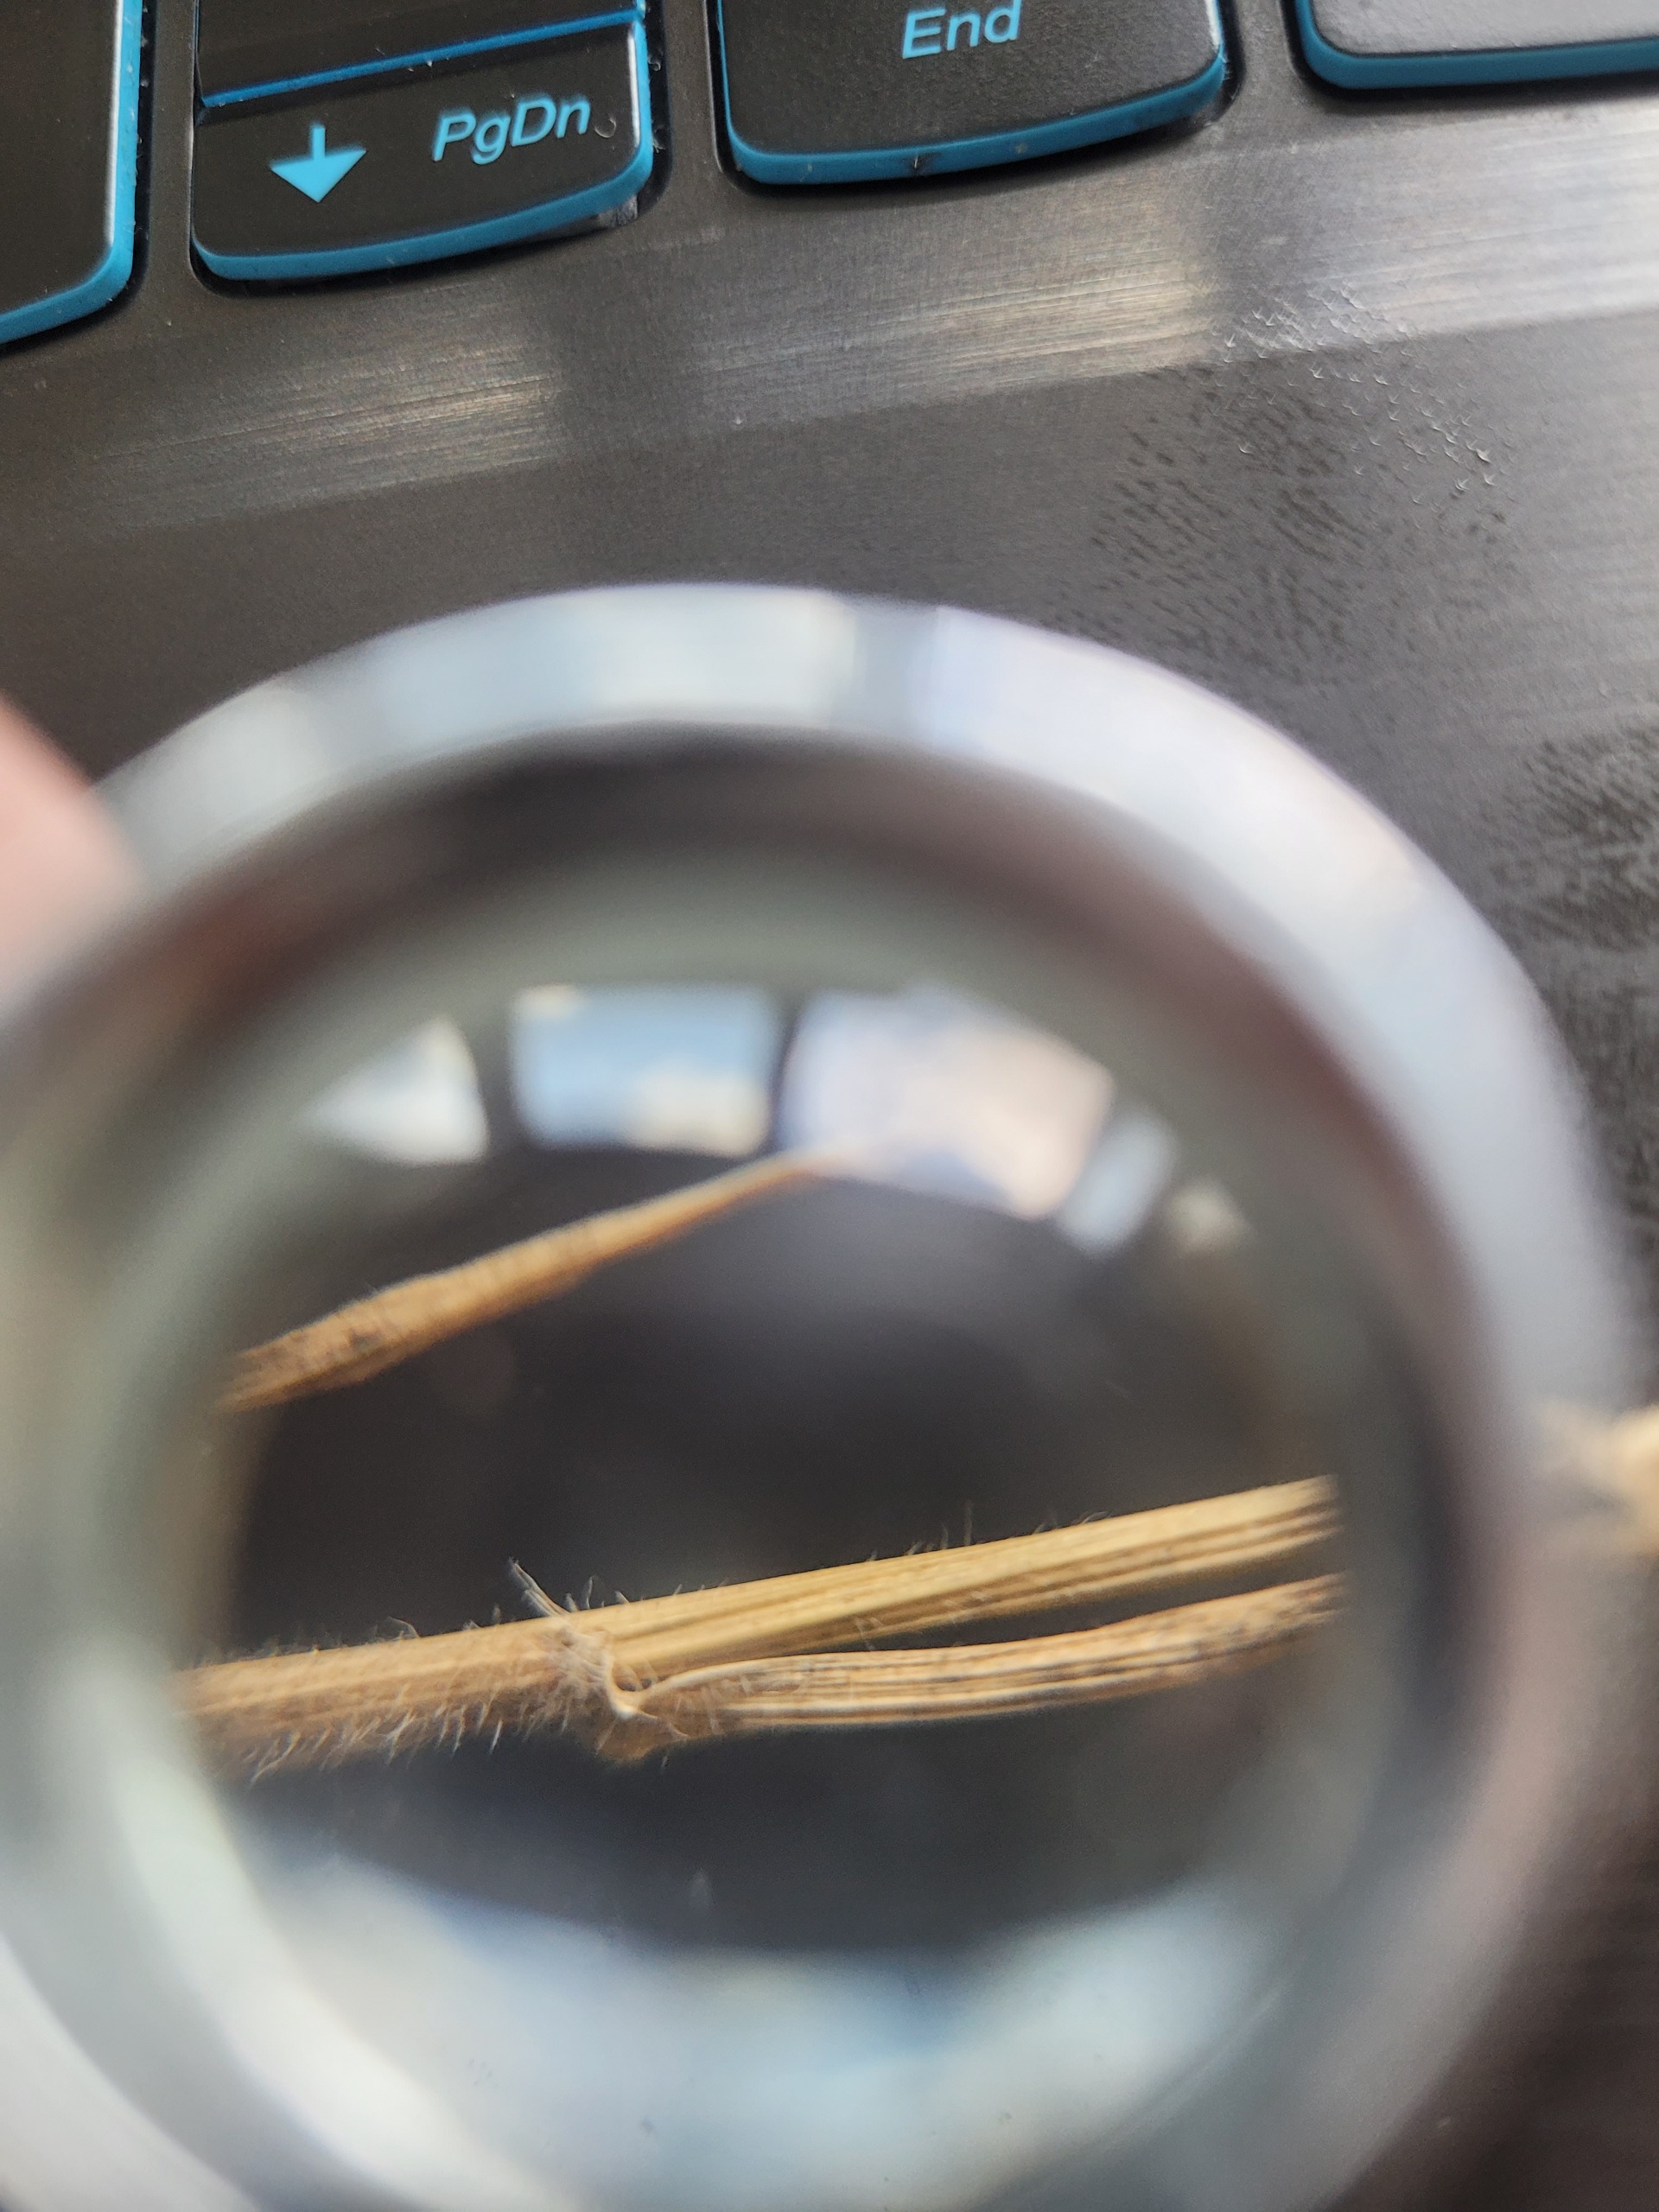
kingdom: Plantae
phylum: Tracheophyta
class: Liliopsida
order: Poales
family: Poaceae
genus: Anthoxanthum
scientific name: Anthoxanthum odoratum
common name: Vellugtende gulaks
